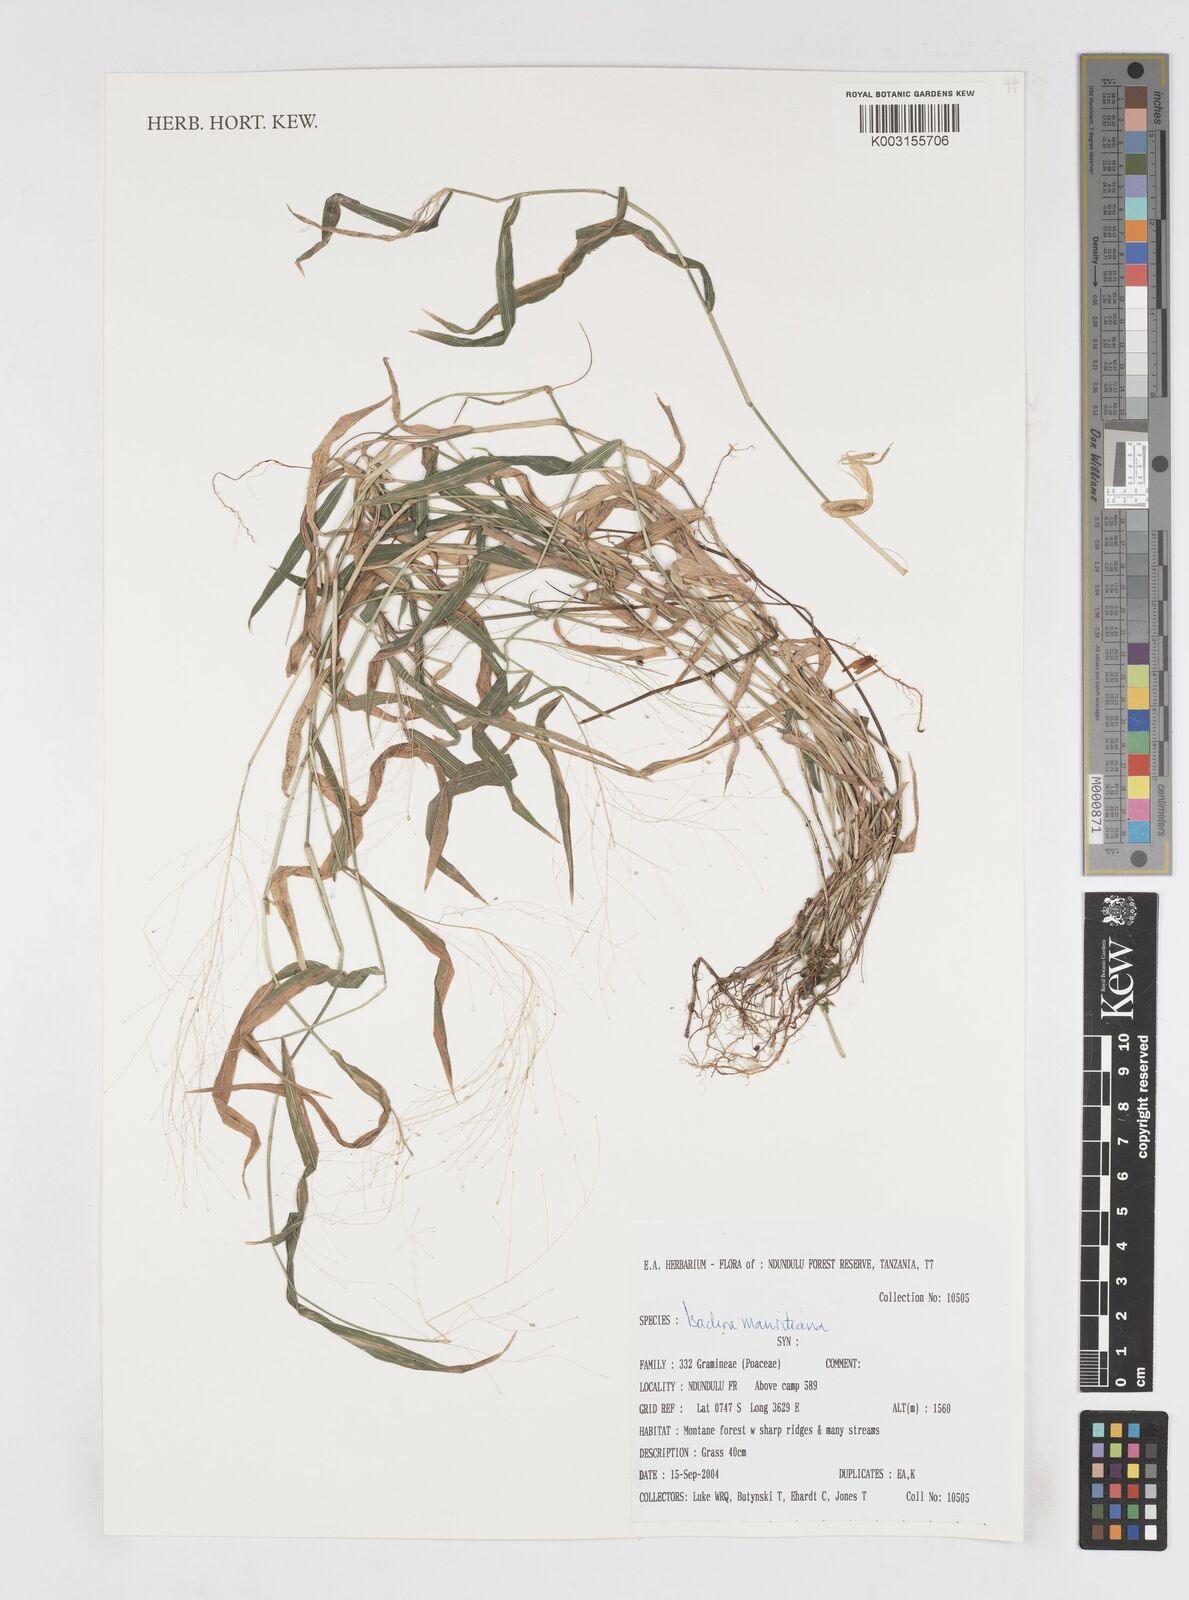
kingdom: Plantae
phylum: Tracheophyta
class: Liliopsida
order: Poales
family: Poaceae
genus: Isachne
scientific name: Isachne mauritiana
